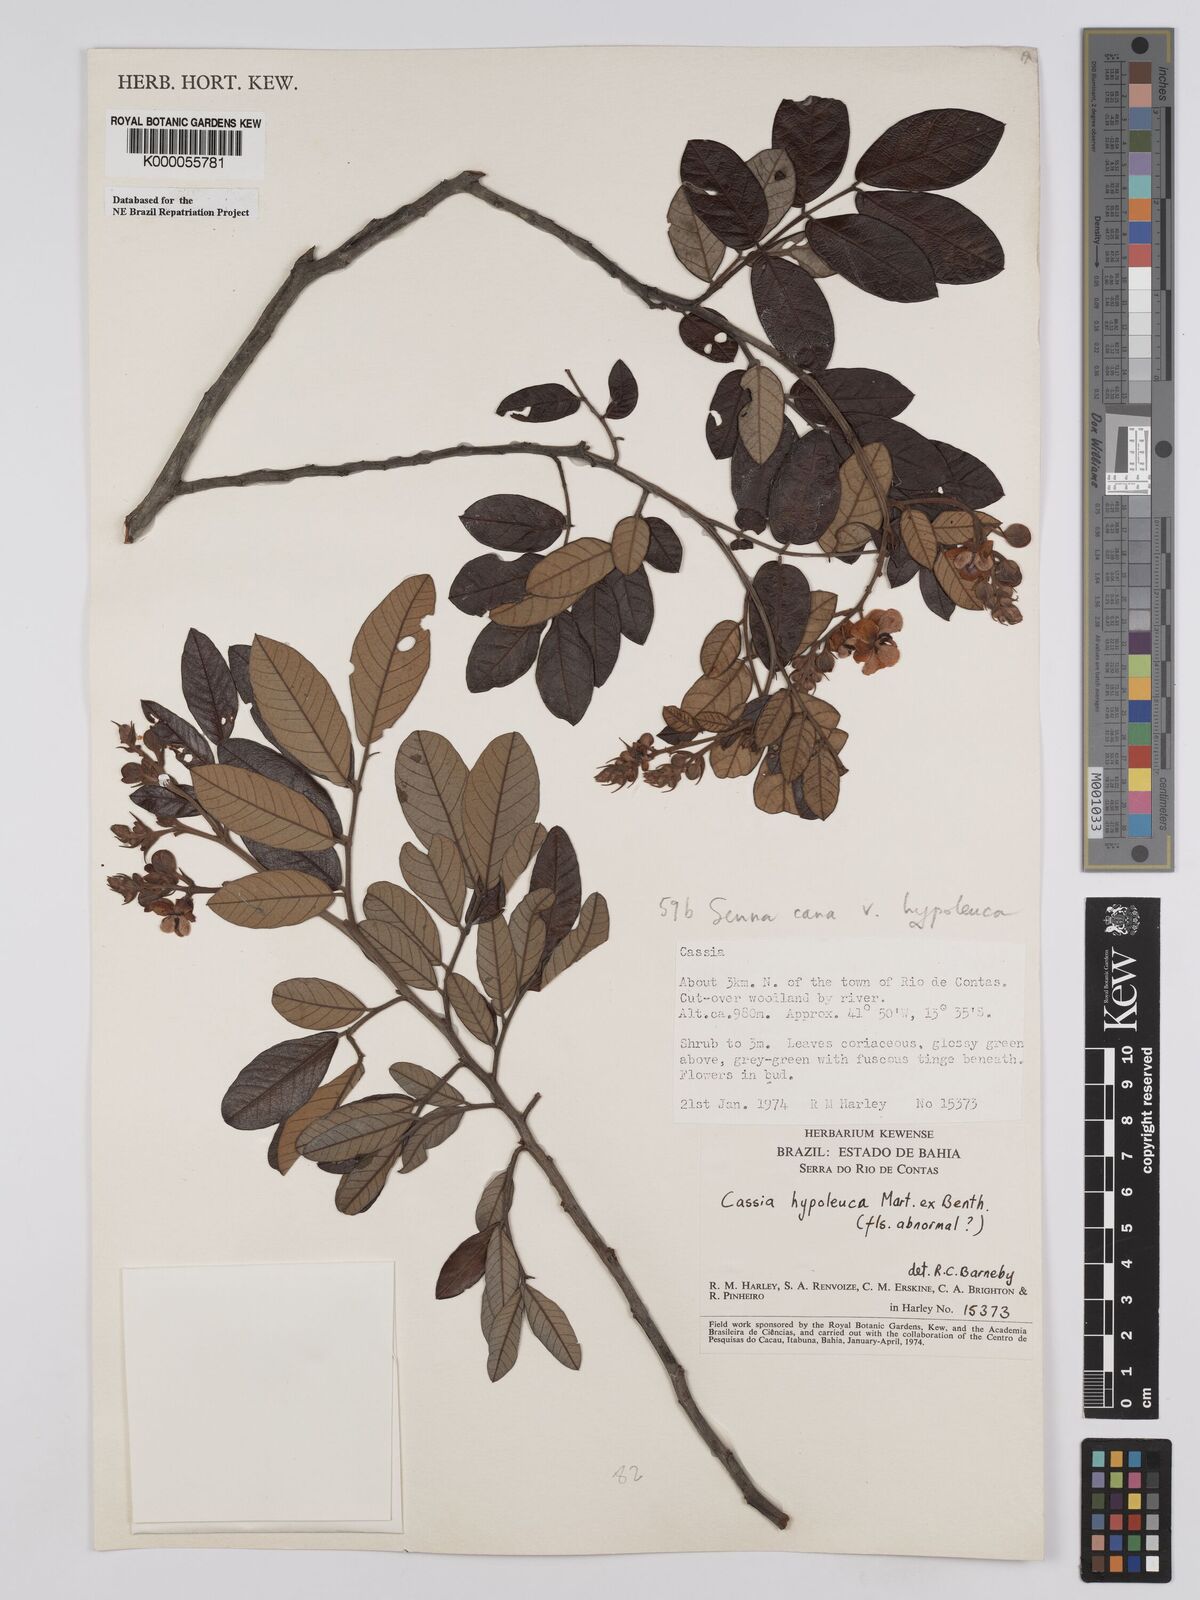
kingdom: Plantae
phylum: Tracheophyta
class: Magnoliopsida
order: Fabales
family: Fabaceae
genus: Senna
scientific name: Senna cana
